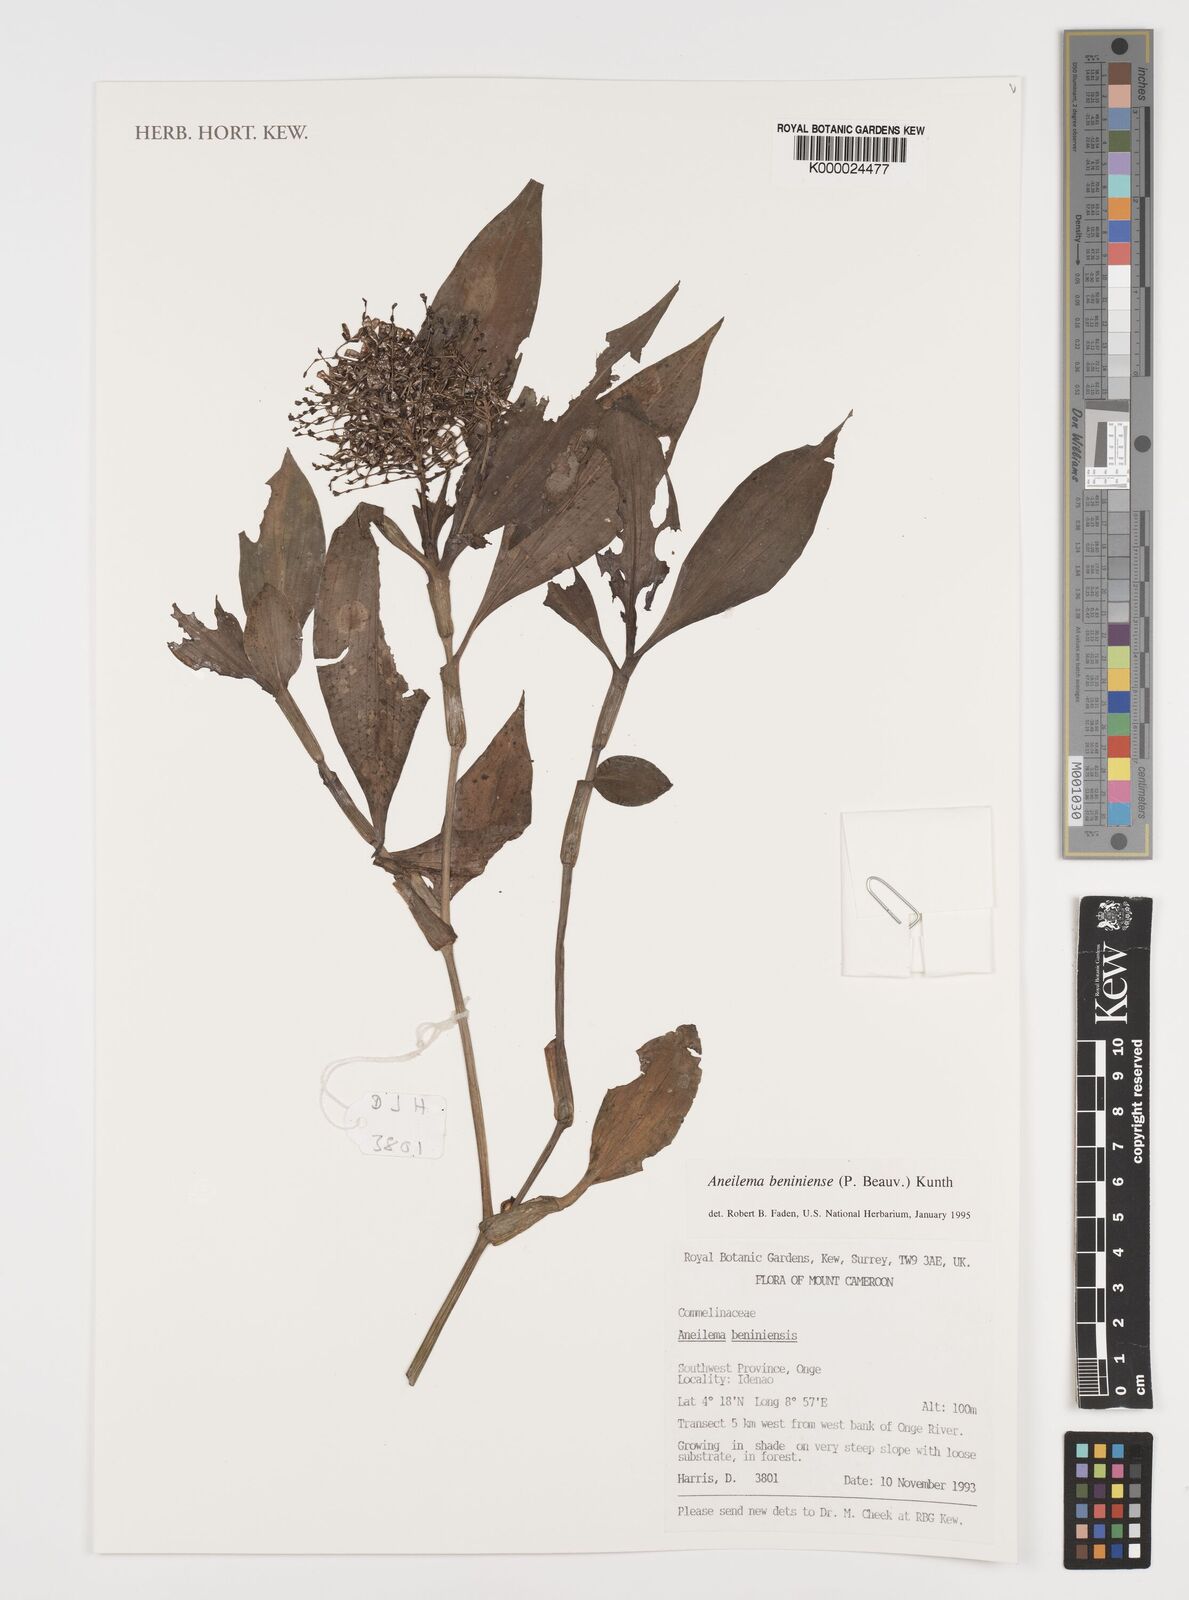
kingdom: Plantae
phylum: Tracheophyta
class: Liliopsida
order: Commelinales
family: Commelinaceae
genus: Aneilema
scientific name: Aneilema beniniense
